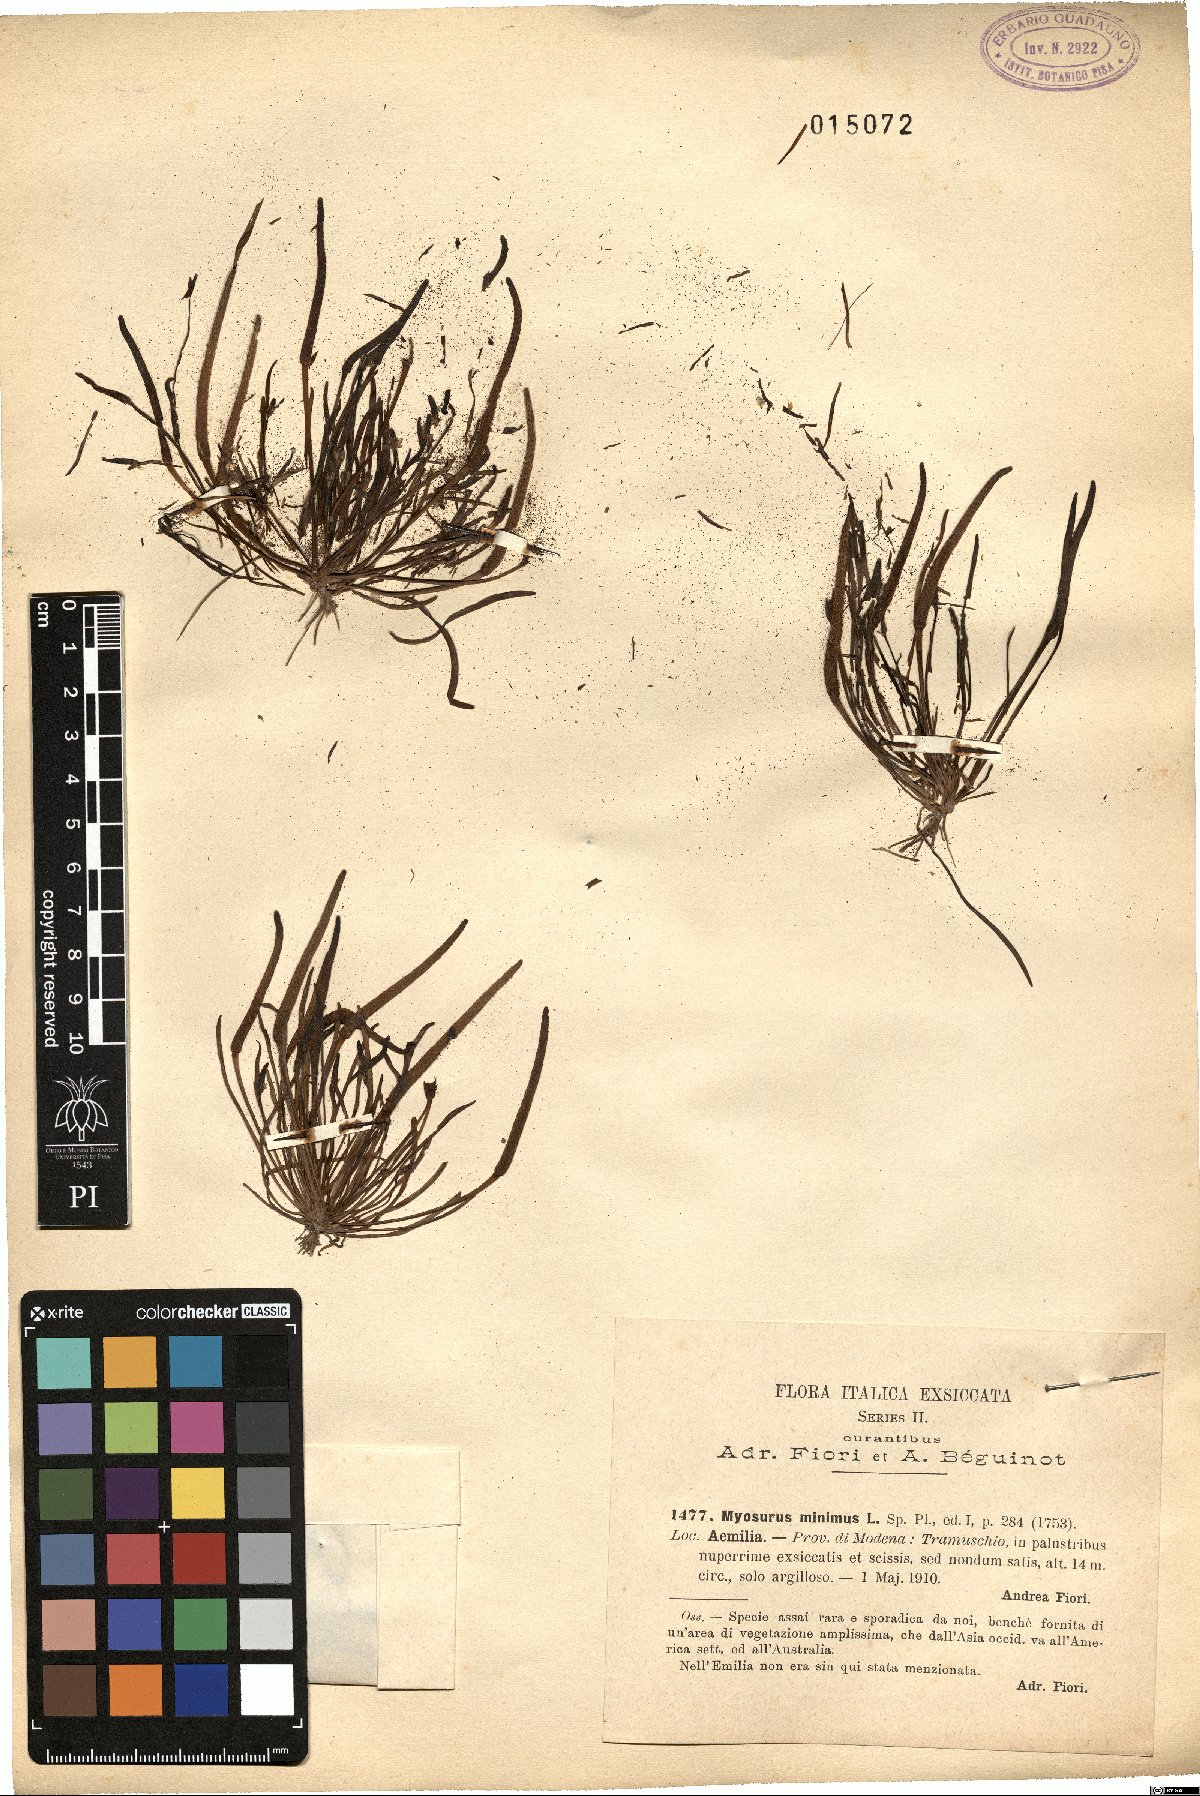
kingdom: Plantae
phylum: Tracheophyta
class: Magnoliopsida
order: Ranunculales
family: Ranunculaceae
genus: Myosurus
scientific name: Myosurus minimus
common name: Mousetail
